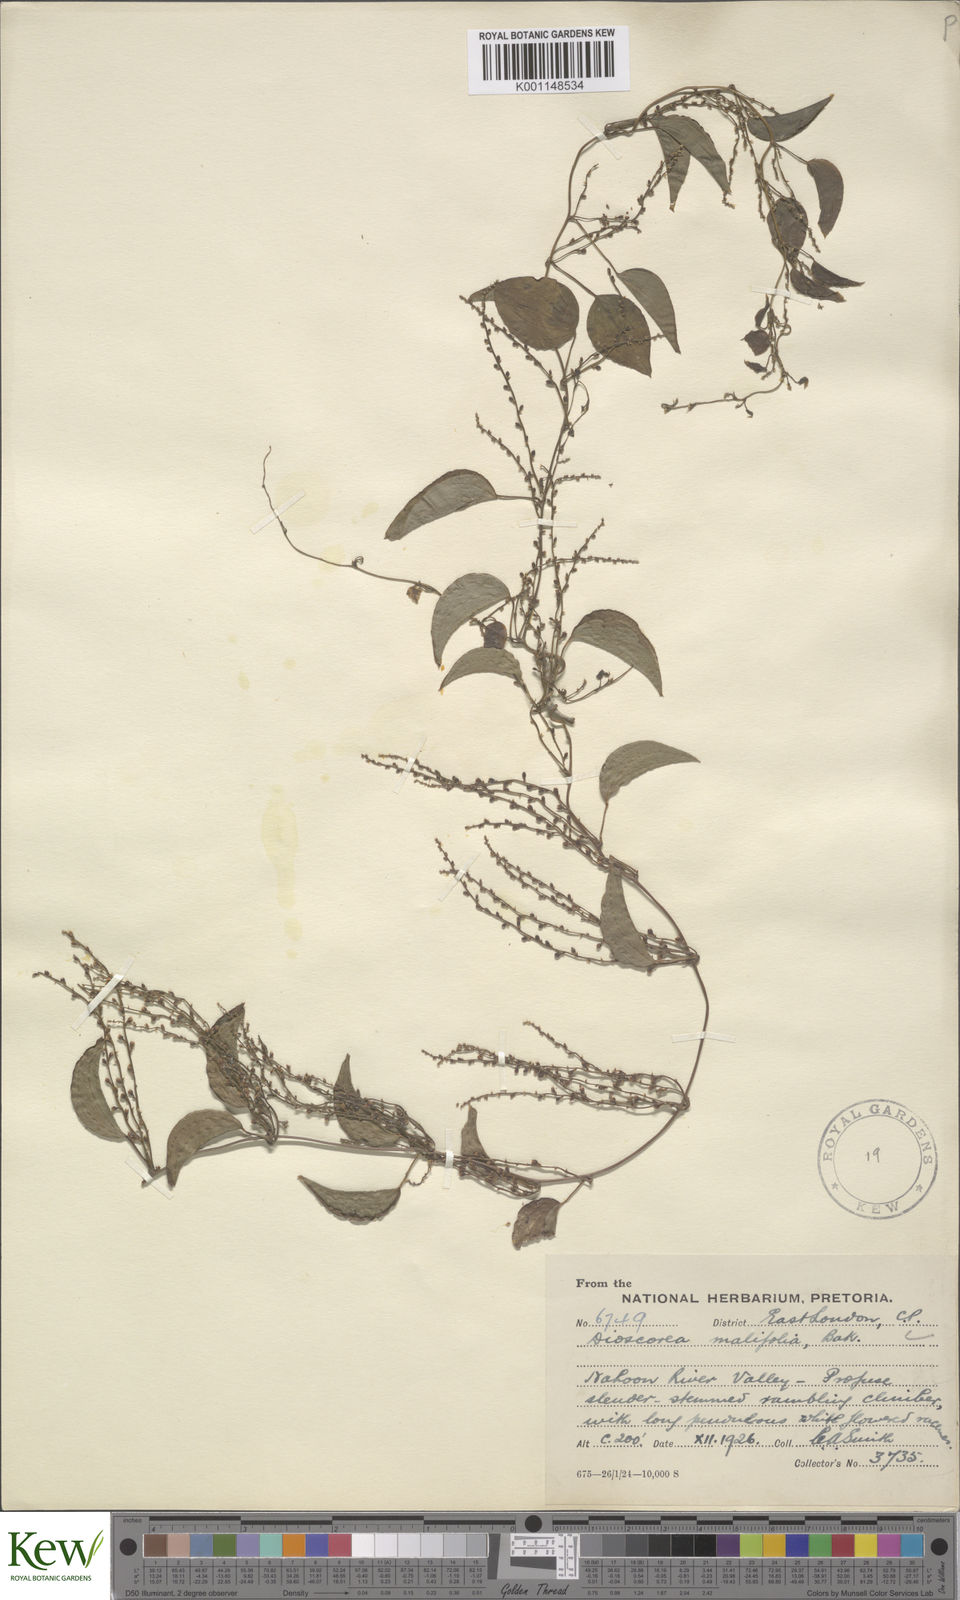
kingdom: Plantae
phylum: Tracheophyta
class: Liliopsida
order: Dioscoreales
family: Dioscoreaceae
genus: Dioscorea
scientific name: Dioscorea cotinifolia
